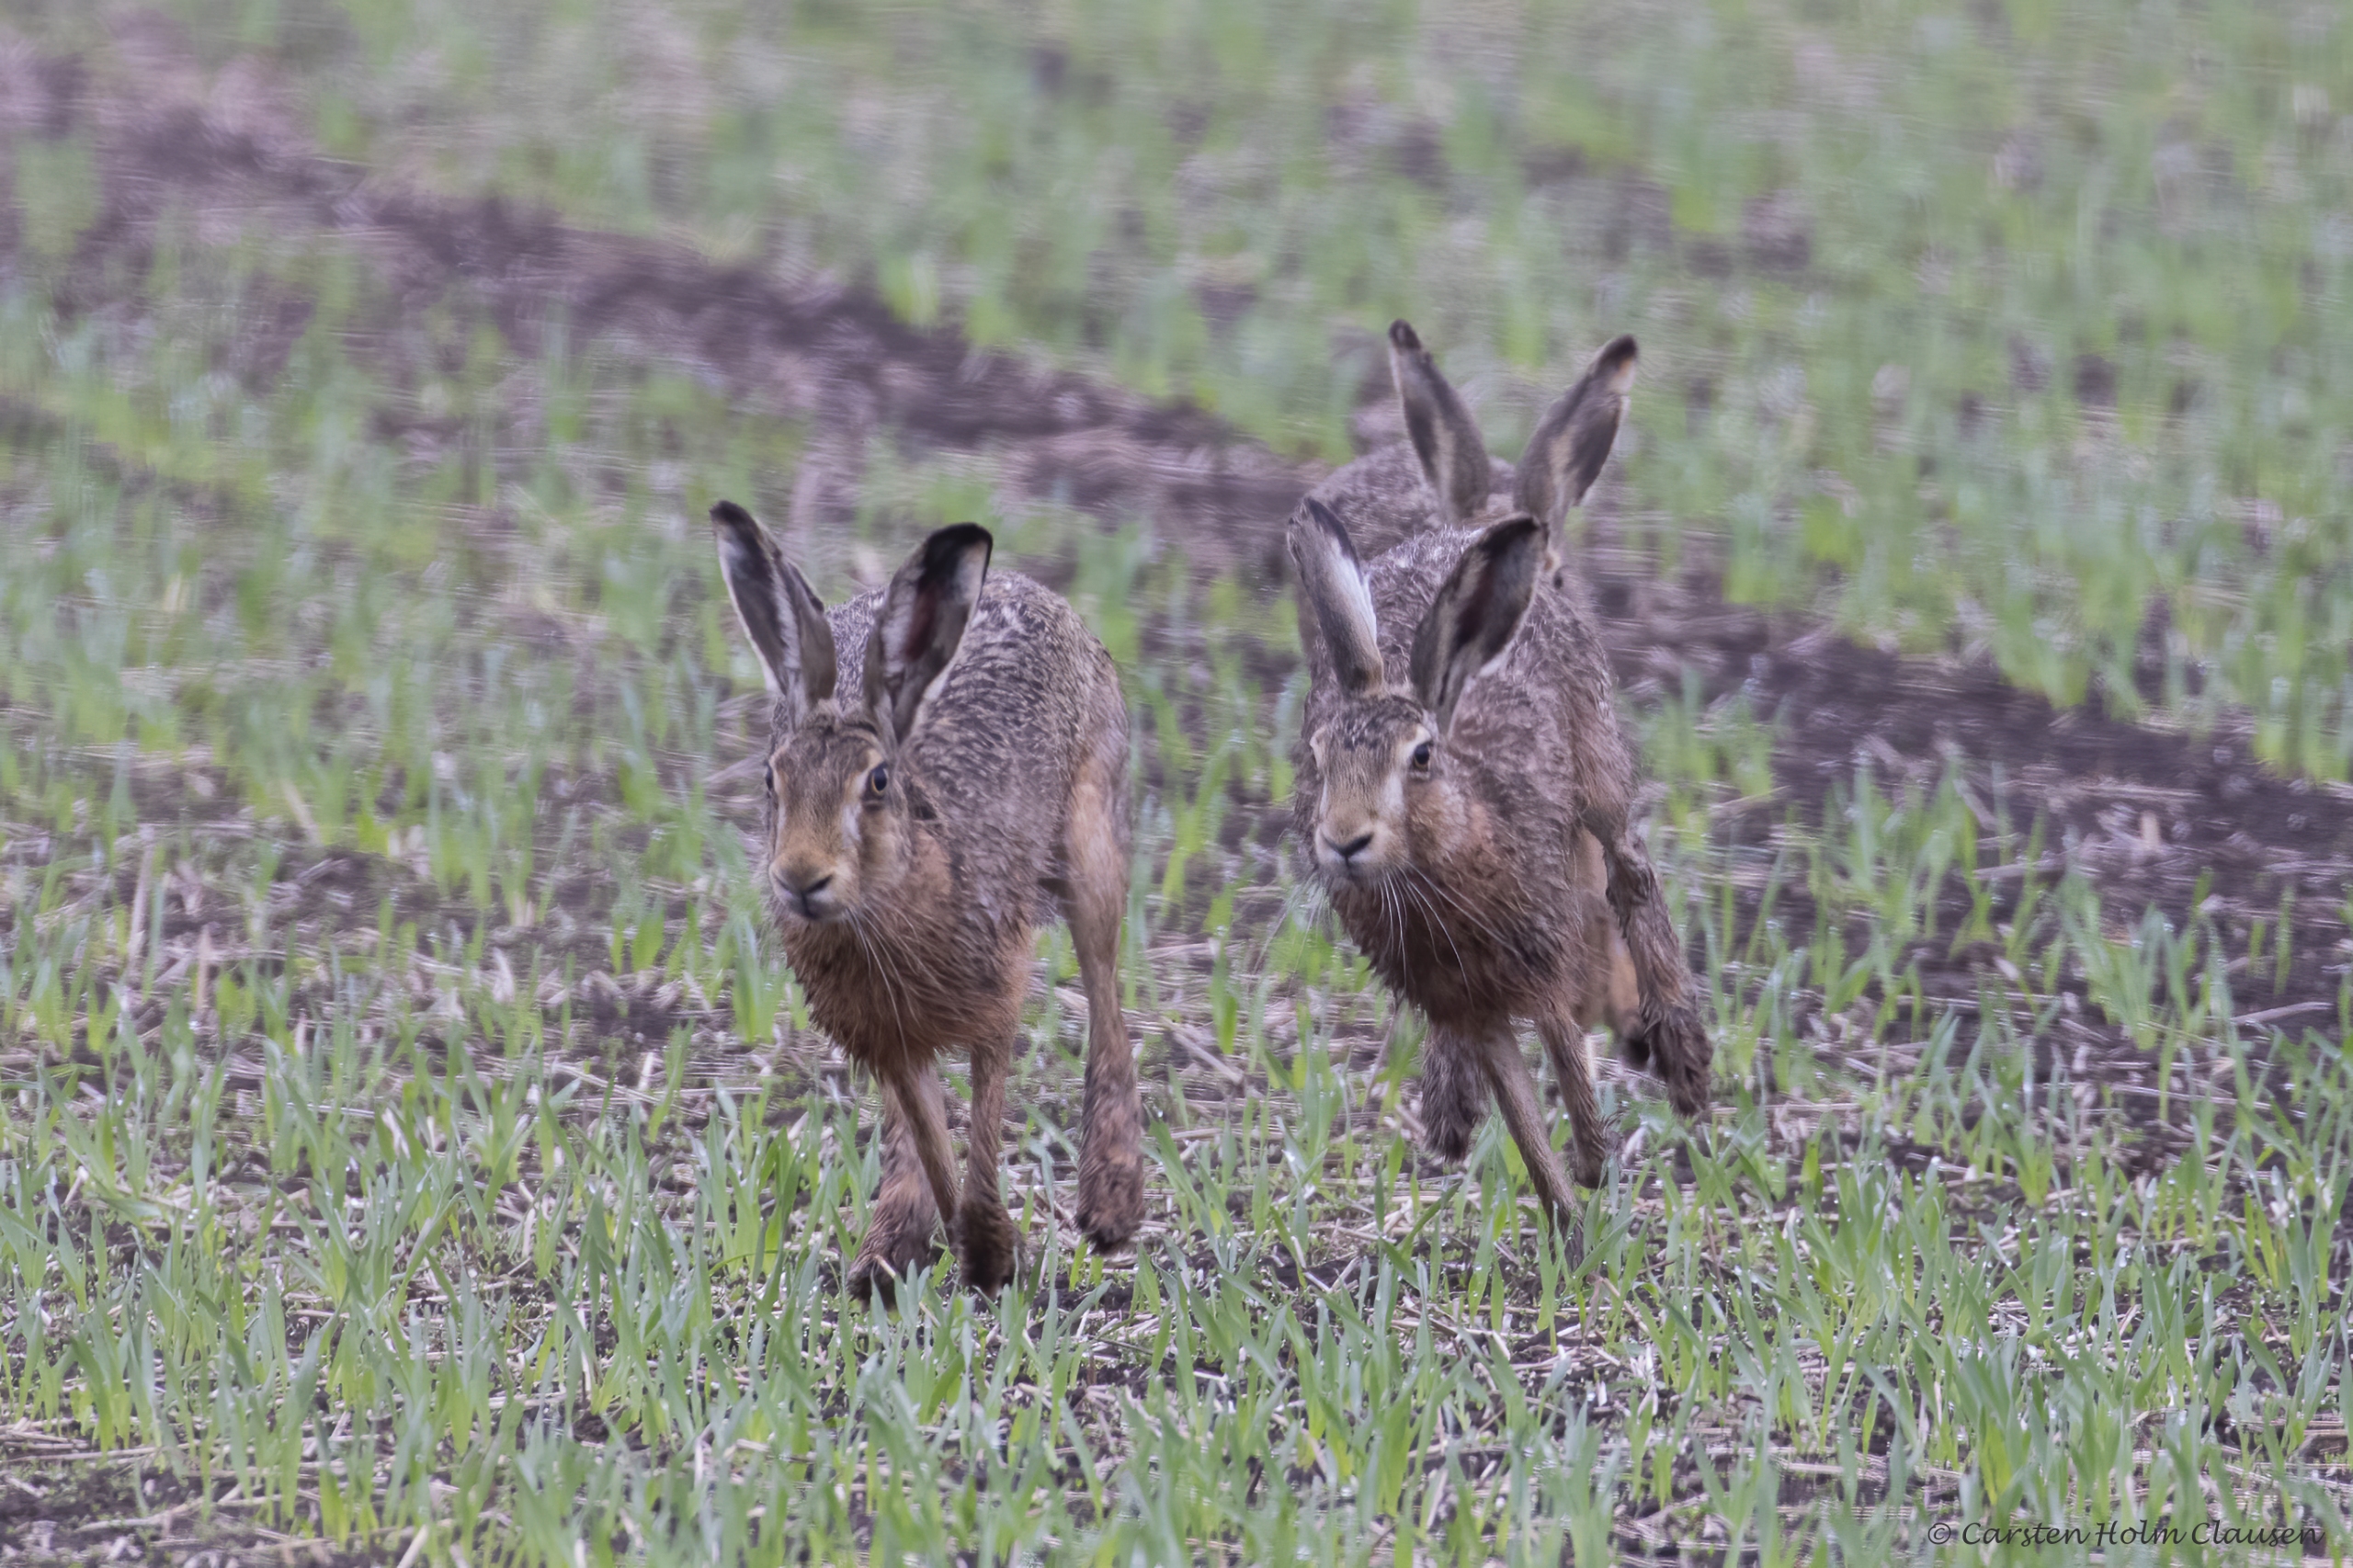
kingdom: Animalia
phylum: Chordata
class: Mammalia
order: Lagomorpha
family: Leporidae
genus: Lepus
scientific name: Lepus europaeus
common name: Hare
